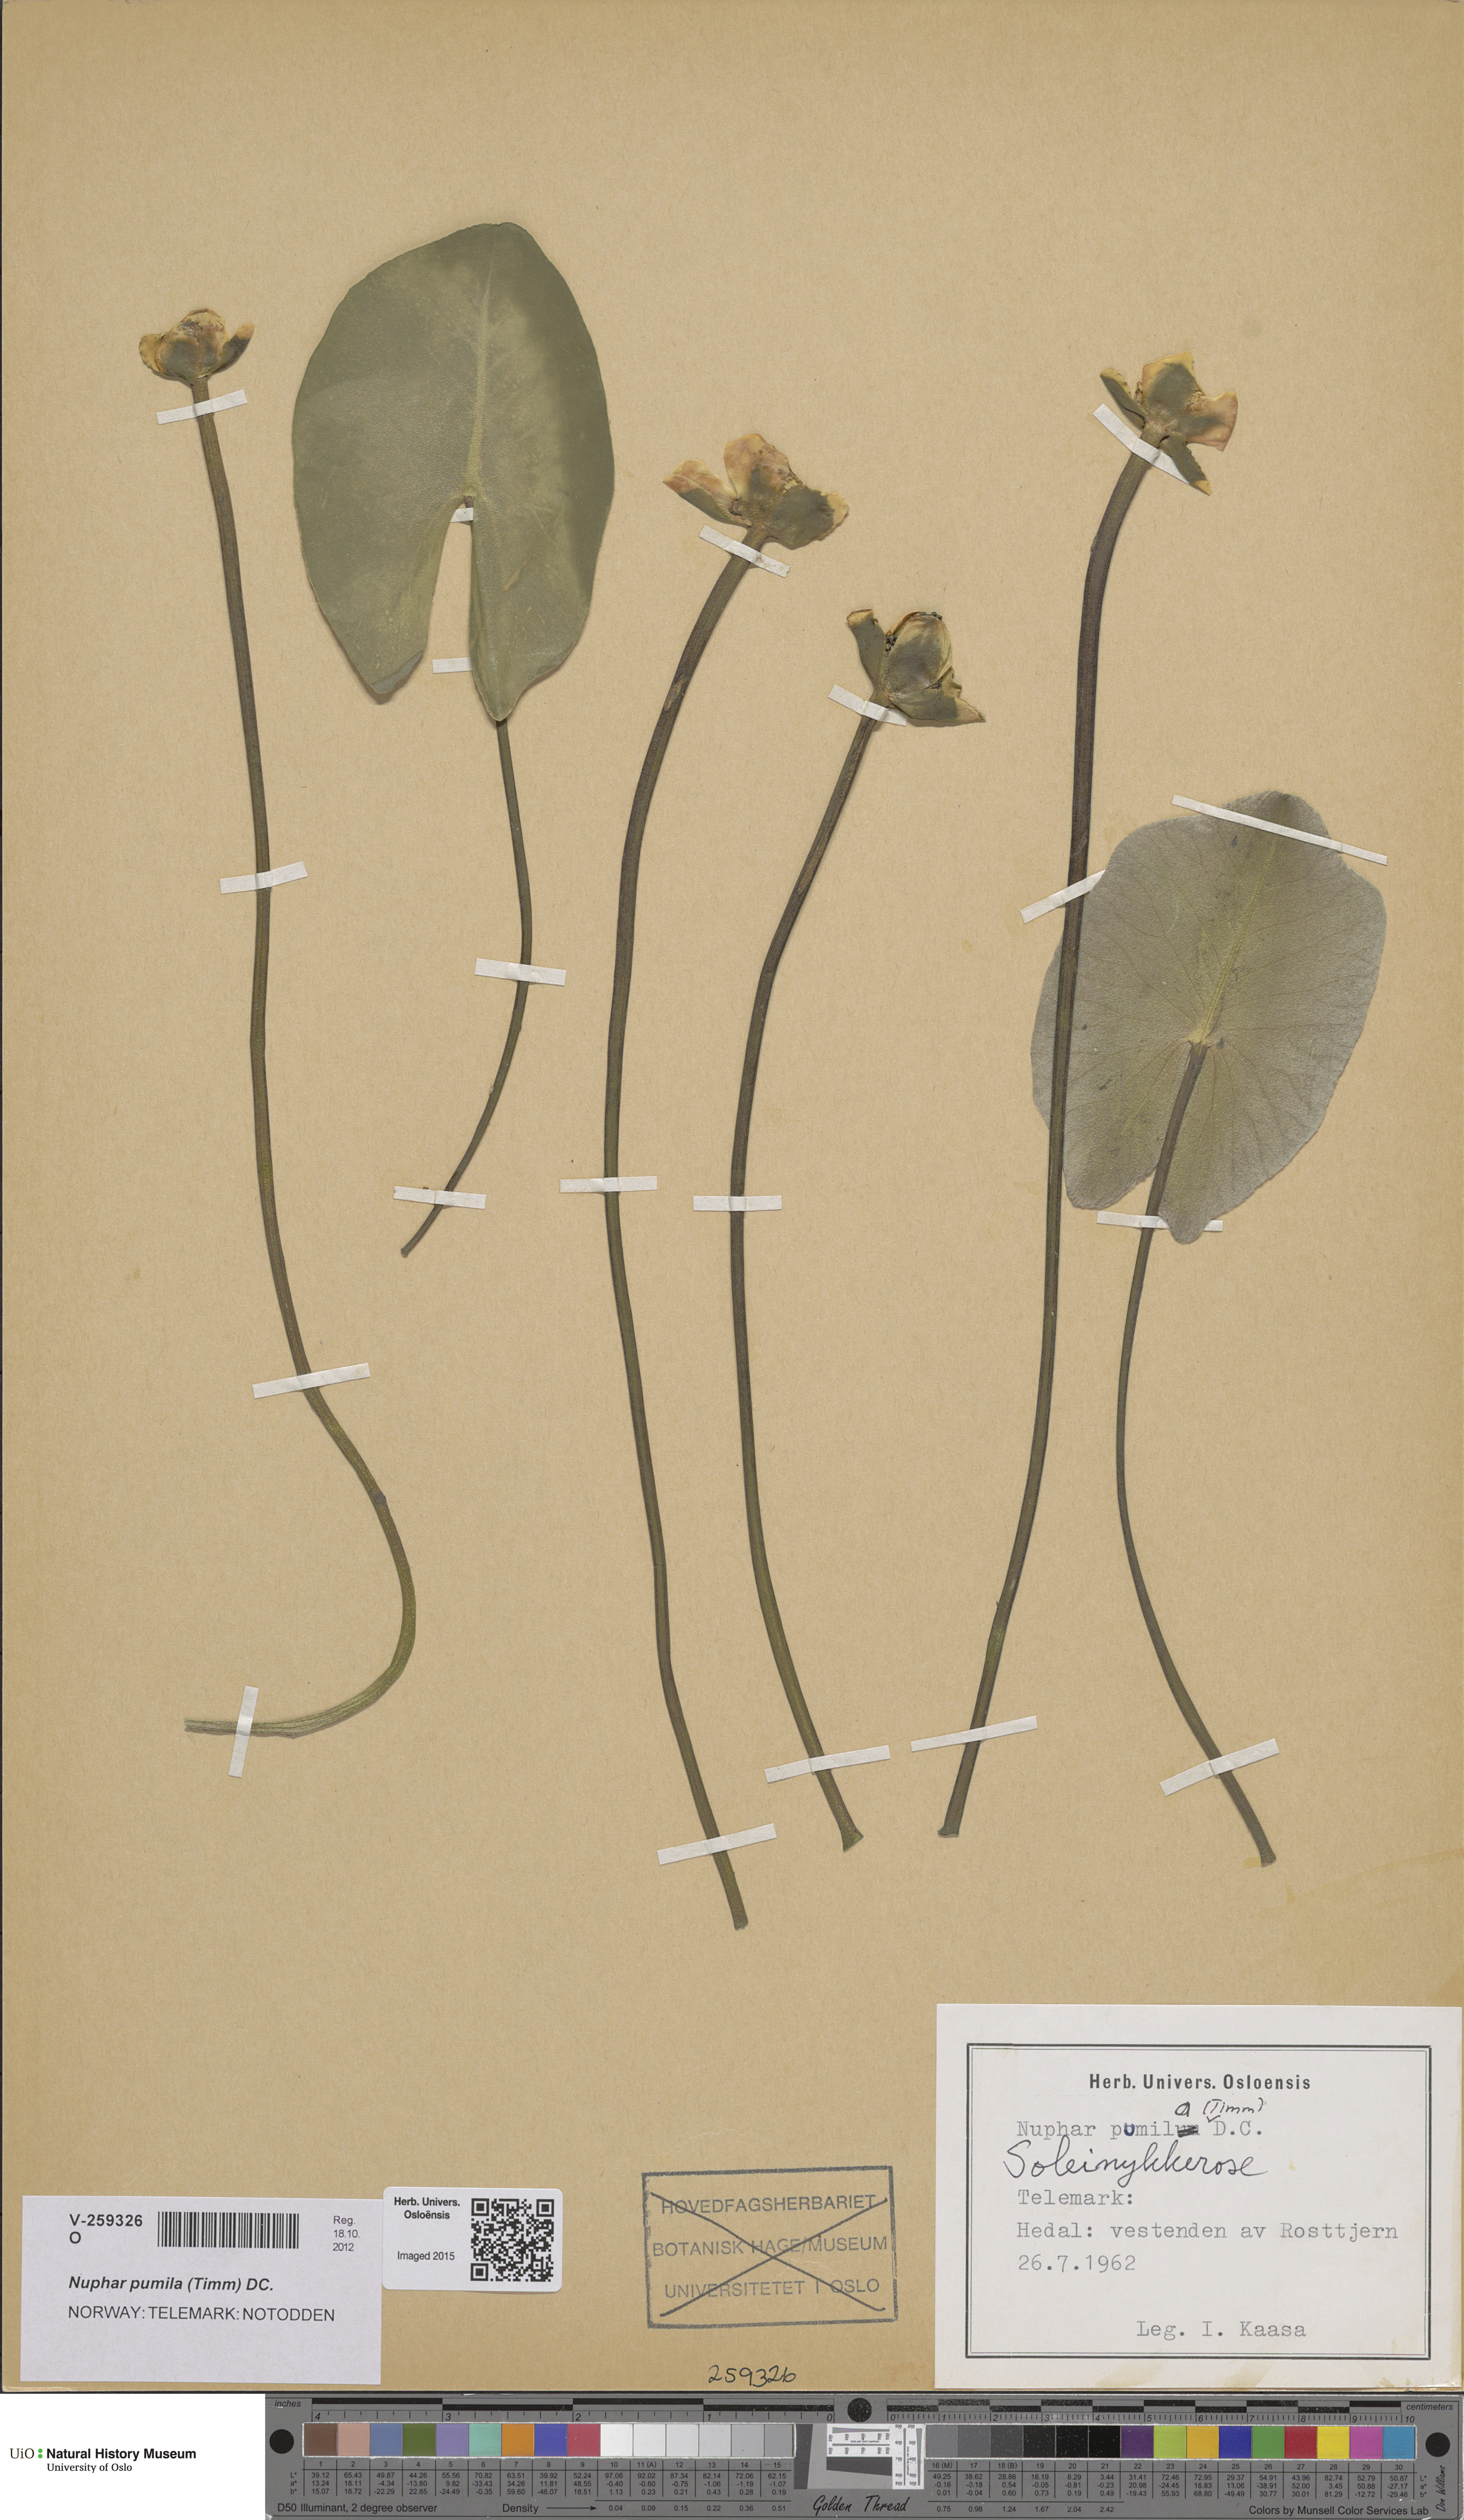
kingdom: Plantae
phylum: Tracheophyta
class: Magnoliopsida
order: Nymphaeales
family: Nymphaeaceae
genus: Nuphar
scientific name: Nuphar pumila
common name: Least water-lily
